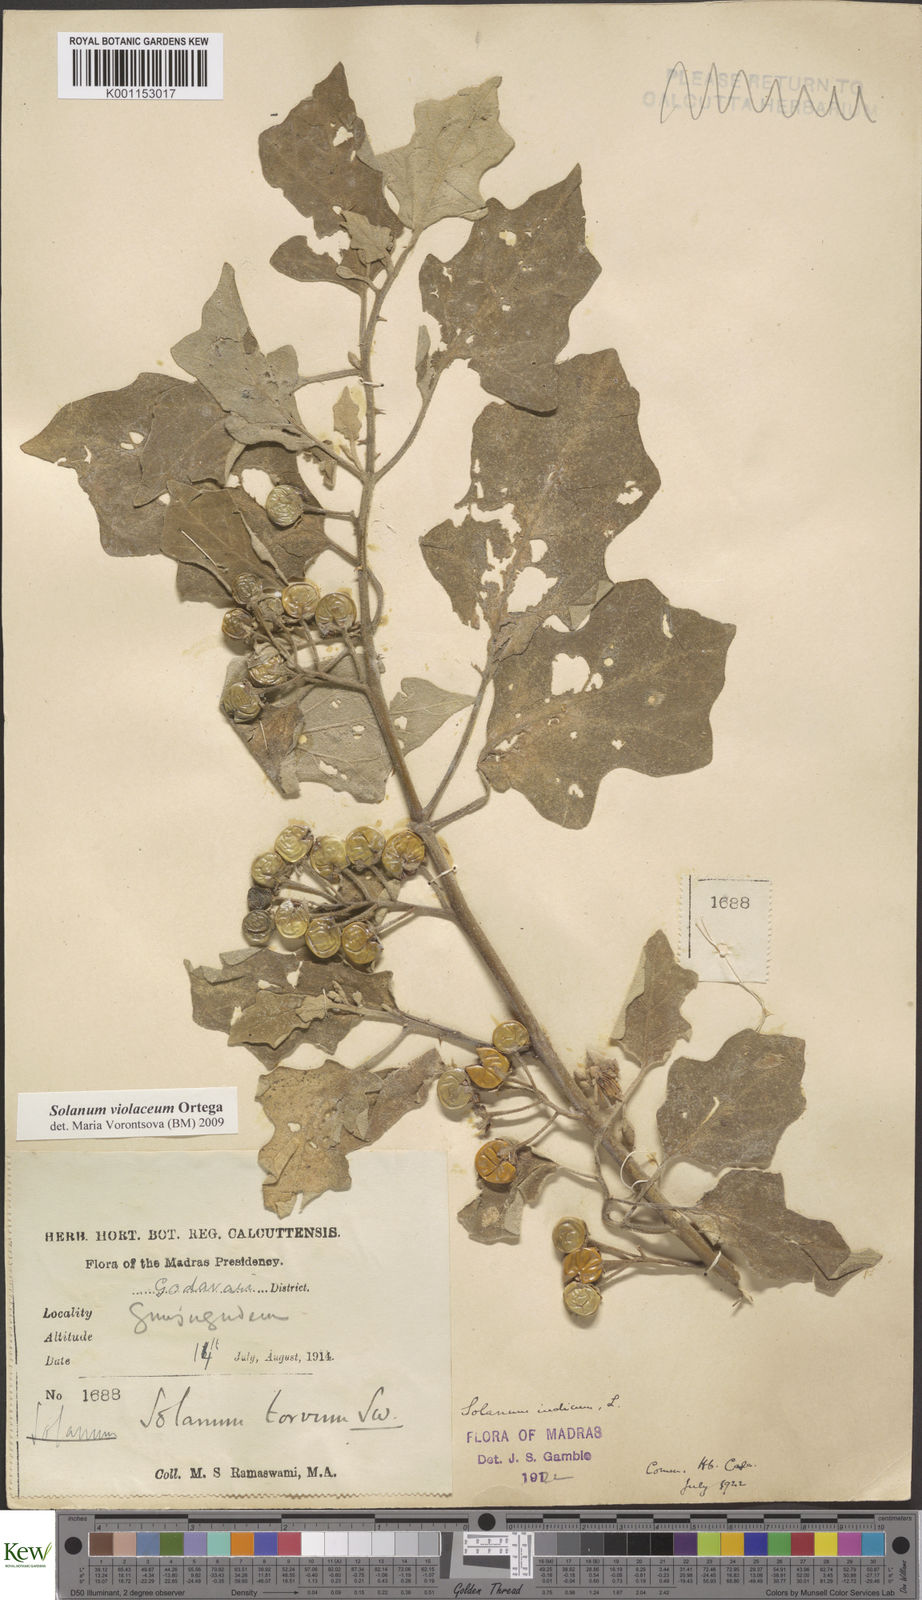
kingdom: Plantae
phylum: Tracheophyta
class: Magnoliopsida
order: Solanales
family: Solanaceae
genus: Solanum
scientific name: Solanum violaceum
